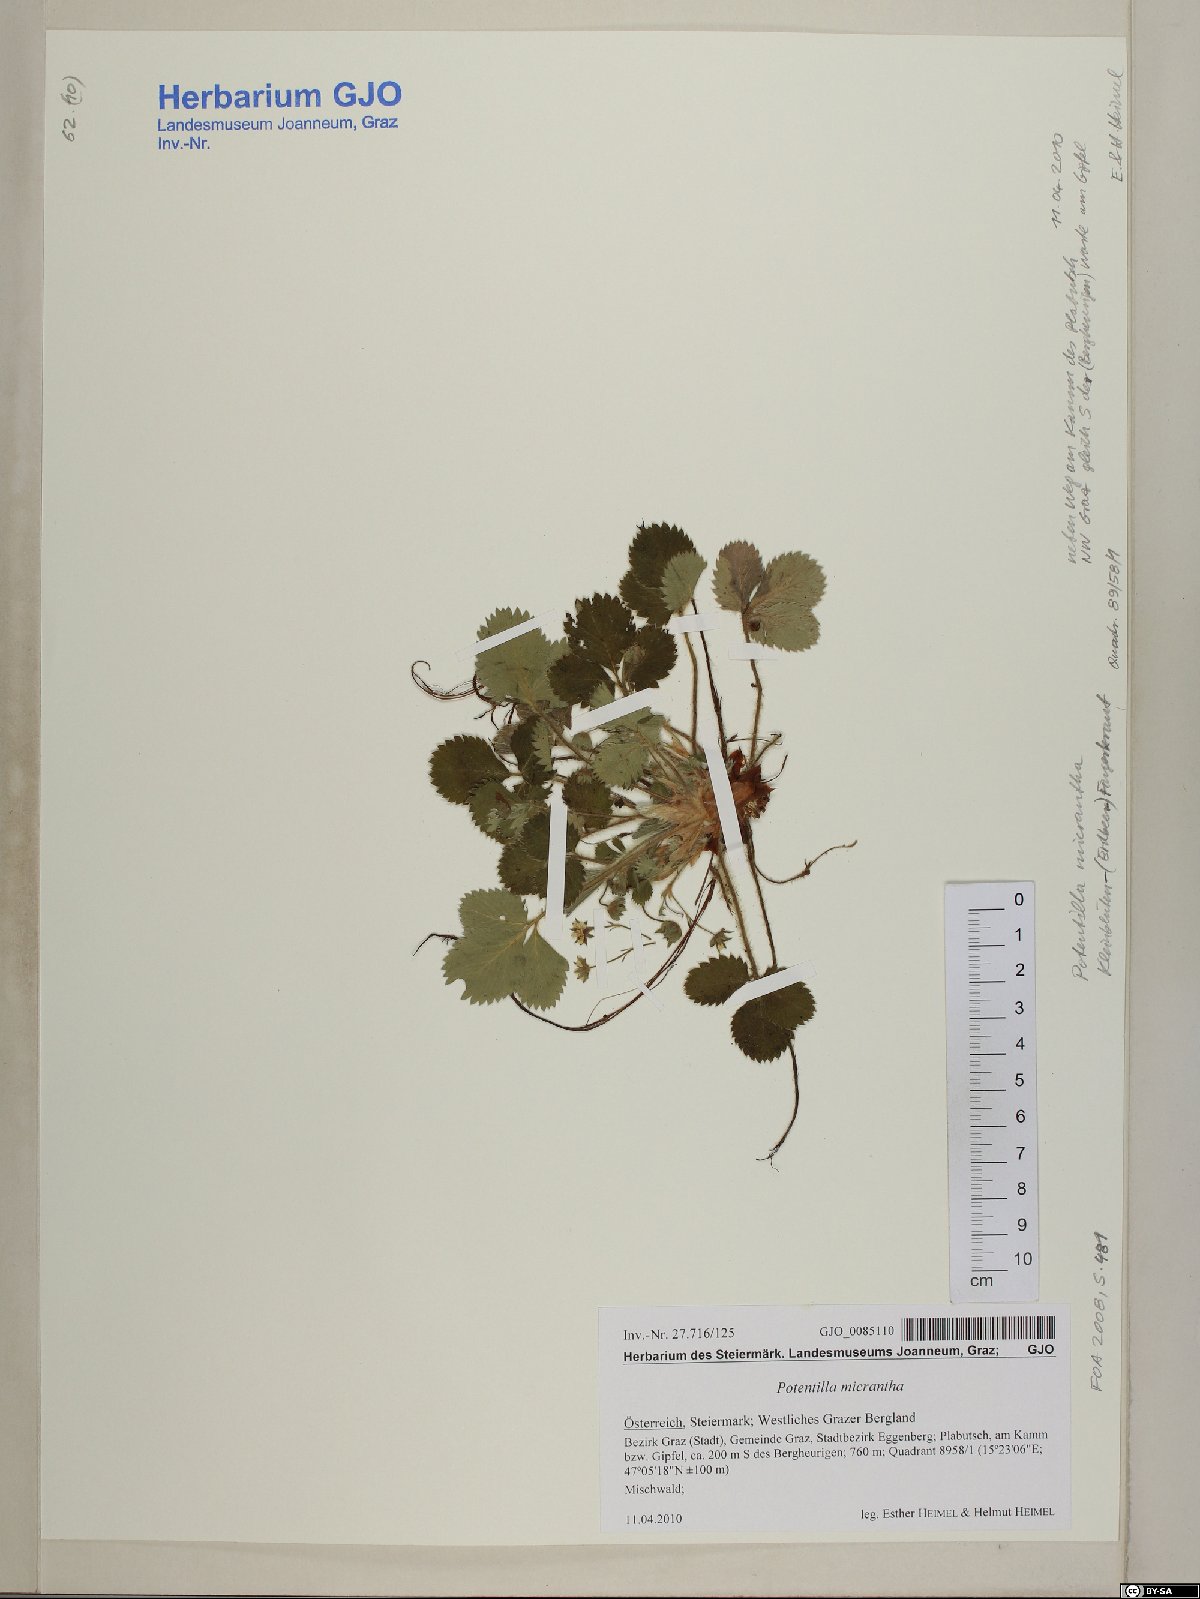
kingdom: Plantae
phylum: Tracheophyta
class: Magnoliopsida
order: Rosales
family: Rosaceae
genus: Potentilla
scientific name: Potentilla micrantha
